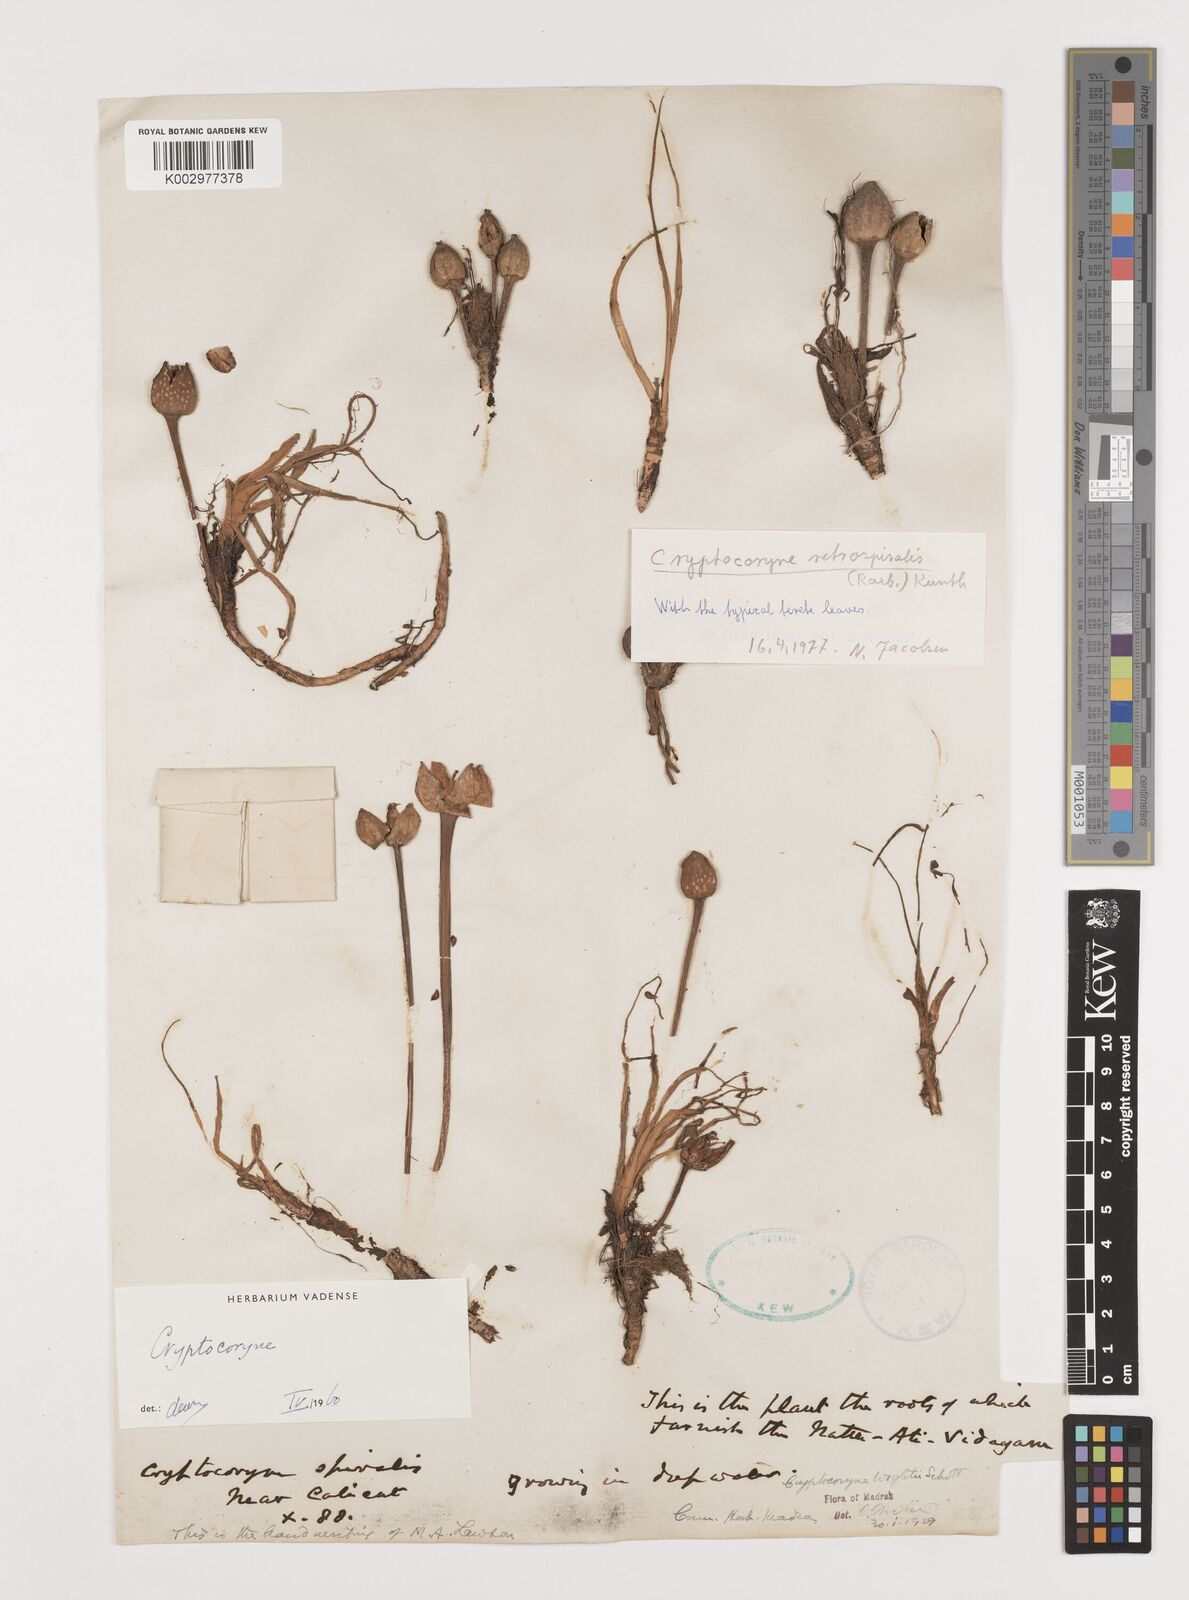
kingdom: Plantae
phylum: Tracheophyta
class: Liliopsida
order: Alismatales
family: Araceae
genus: Cryptocoryne
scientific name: Cryptocoryne retrospiralis
